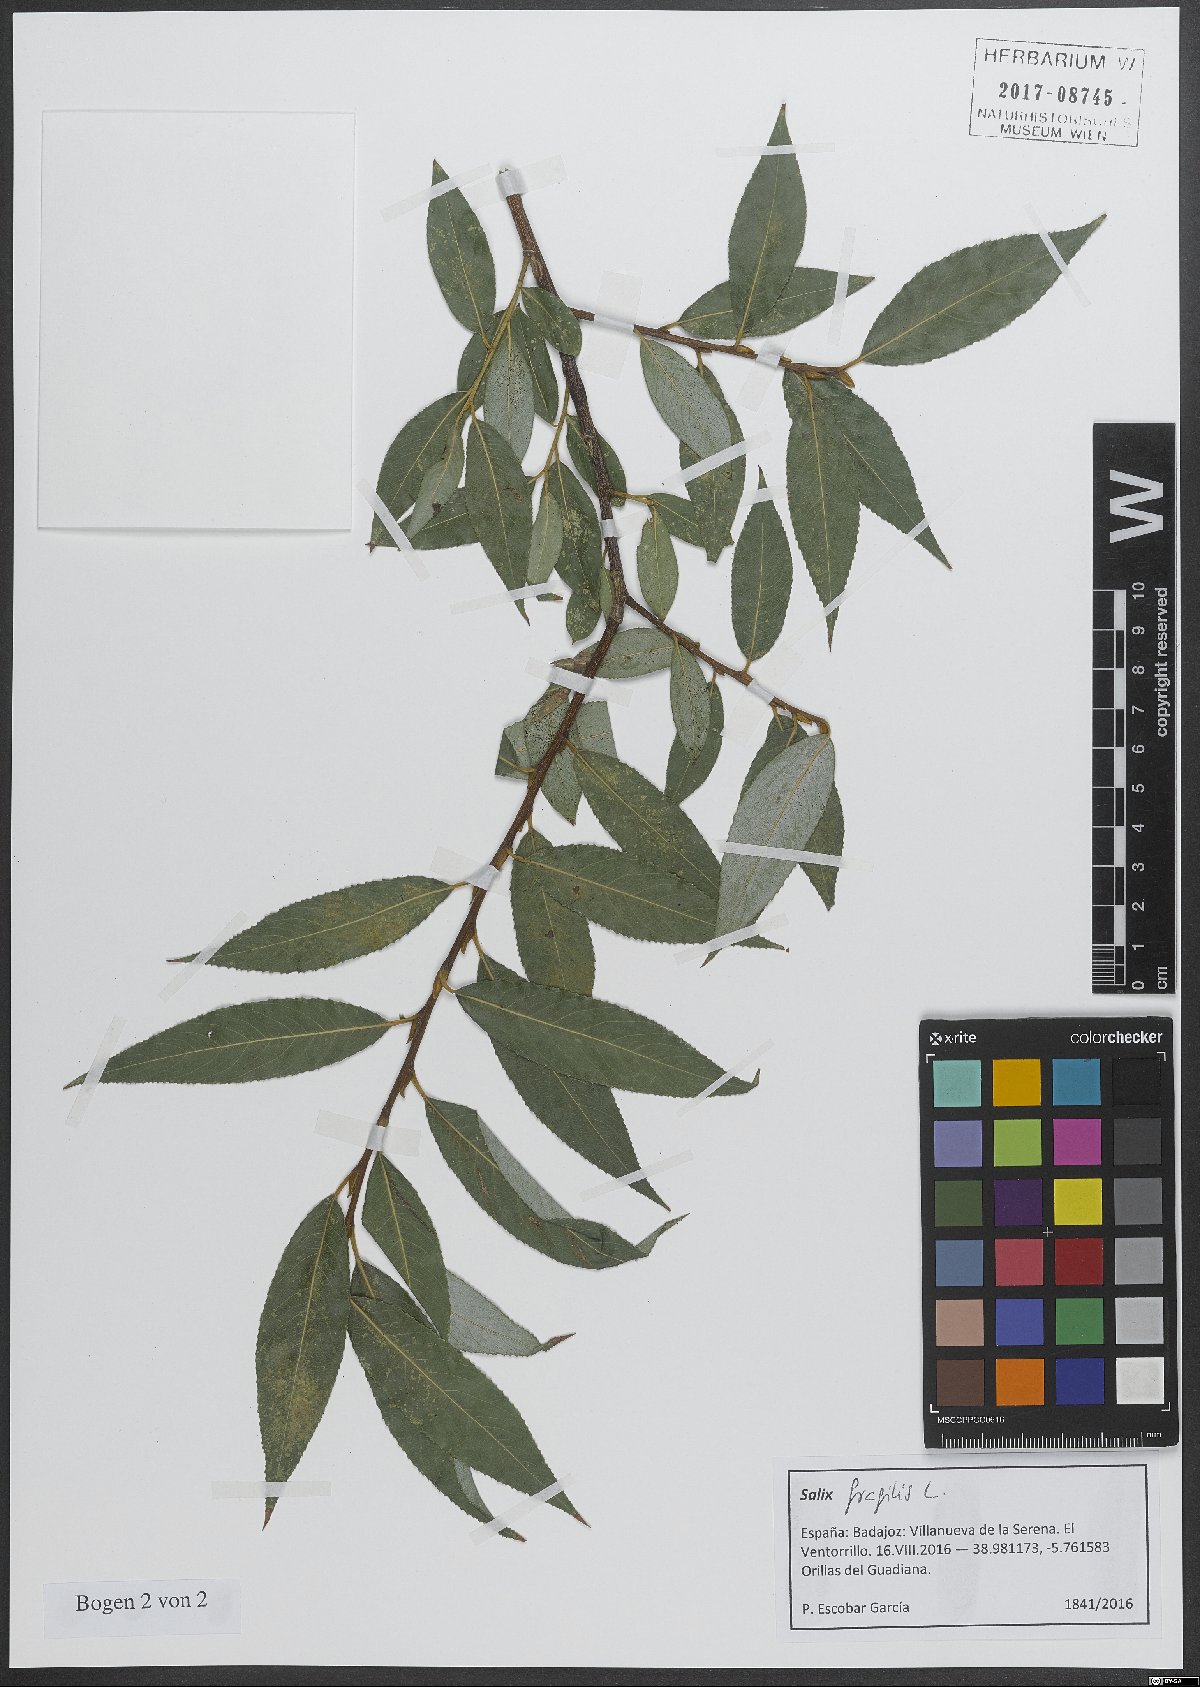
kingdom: Plantae
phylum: Tracheophyta
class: Magnoliopsida
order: Malpighiales
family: Salicaceae
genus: Salix
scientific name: Salix fragilis
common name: Crack willow
